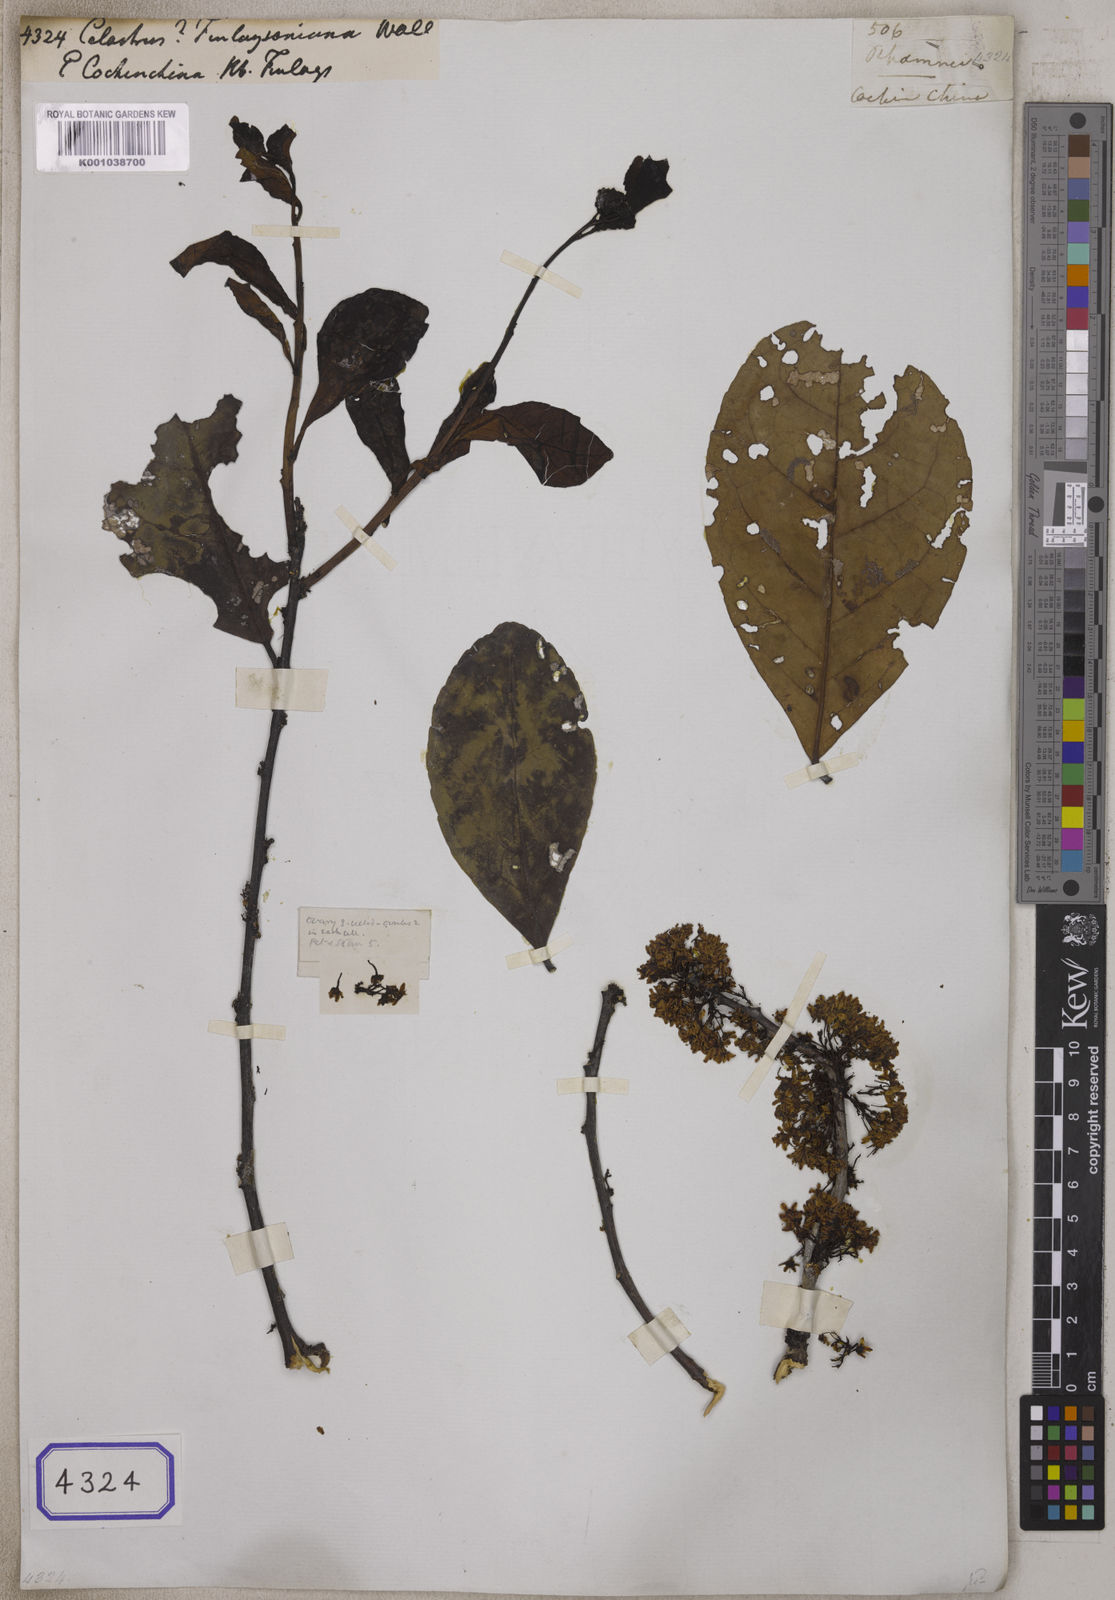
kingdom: Plantae
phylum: Tracheophyta
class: Magnoliopsida
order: Celastrales
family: Celastraceae
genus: Celastrus
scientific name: Celastrus
